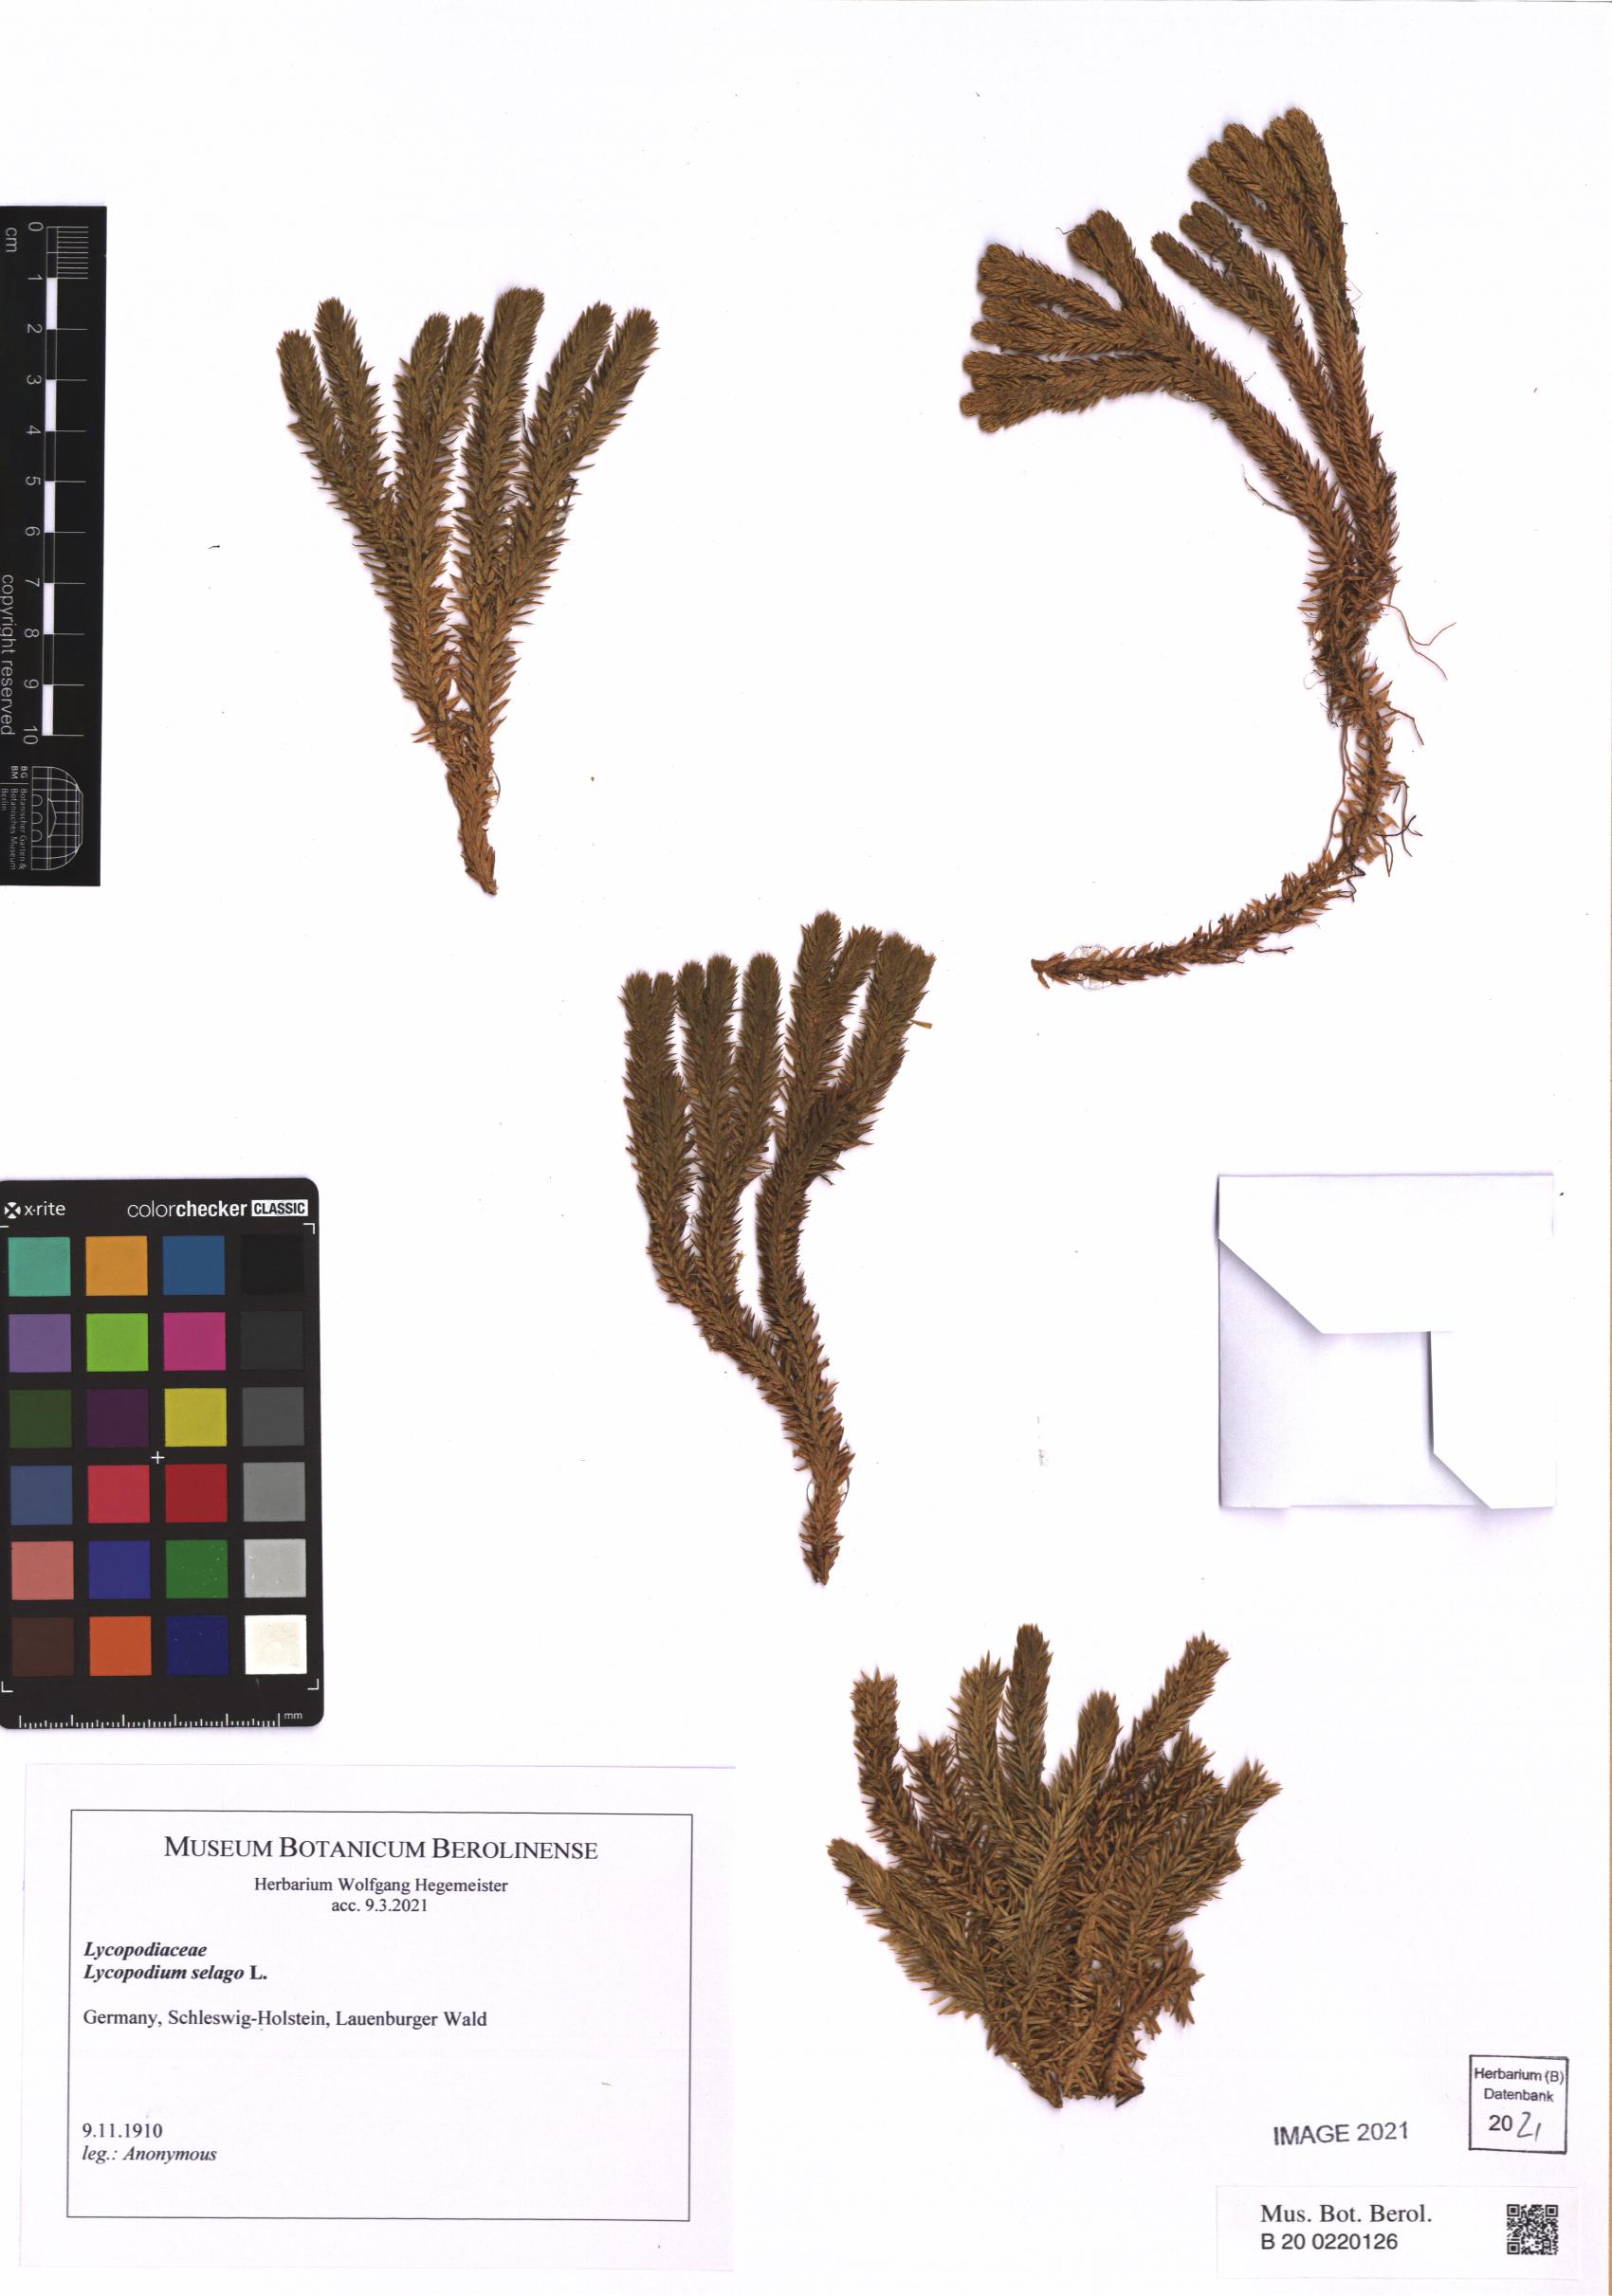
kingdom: Plantae
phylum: Tracheophyta
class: Lycopodiopsida
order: Lycopodiales
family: Lycopodiaceae
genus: Huperzia
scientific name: Huperzia selago
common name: Northern firmoss
